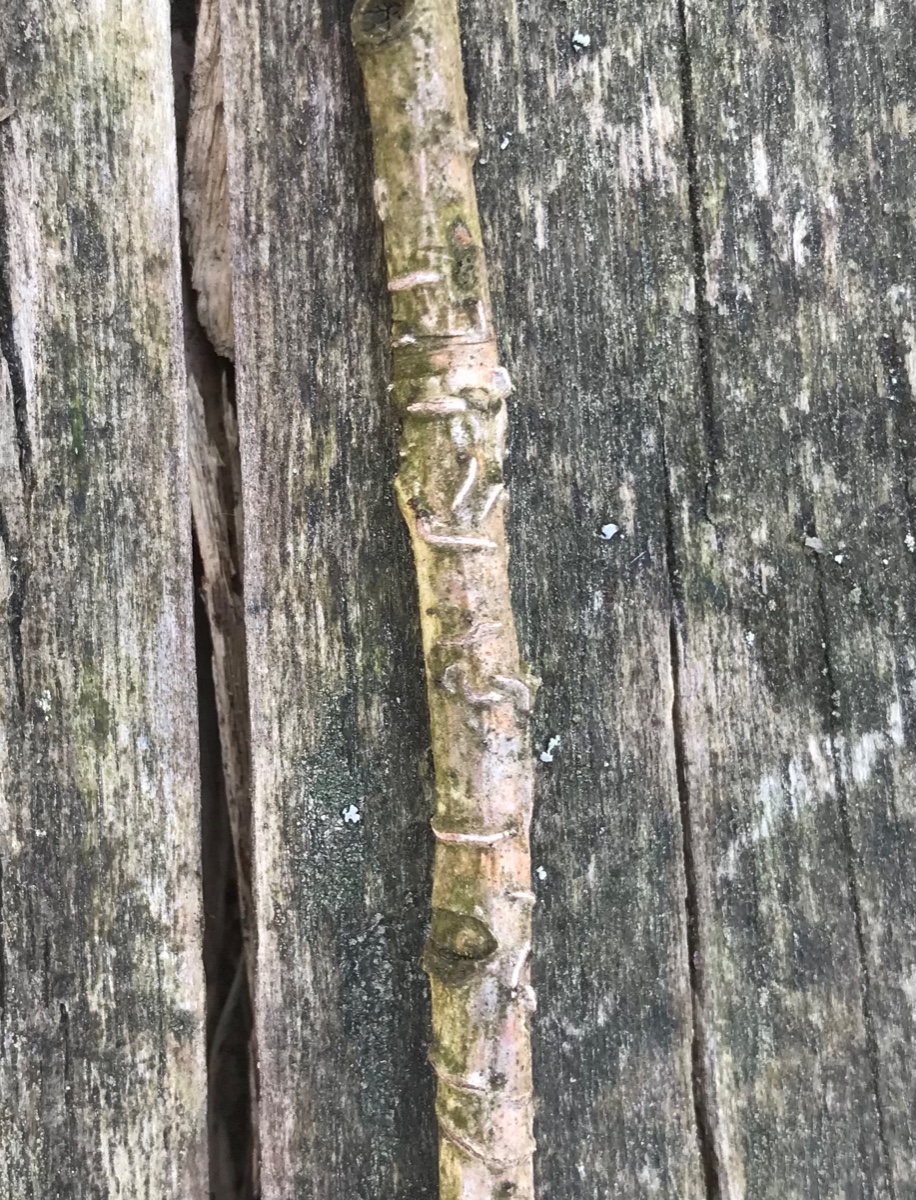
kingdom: Fungi
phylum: Ascomycota
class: Leotiomycetes
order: Rhytismatales
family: Rhytismataceae
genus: Colpoma
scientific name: Colpoma quercinum
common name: ege-sprækkeskive
